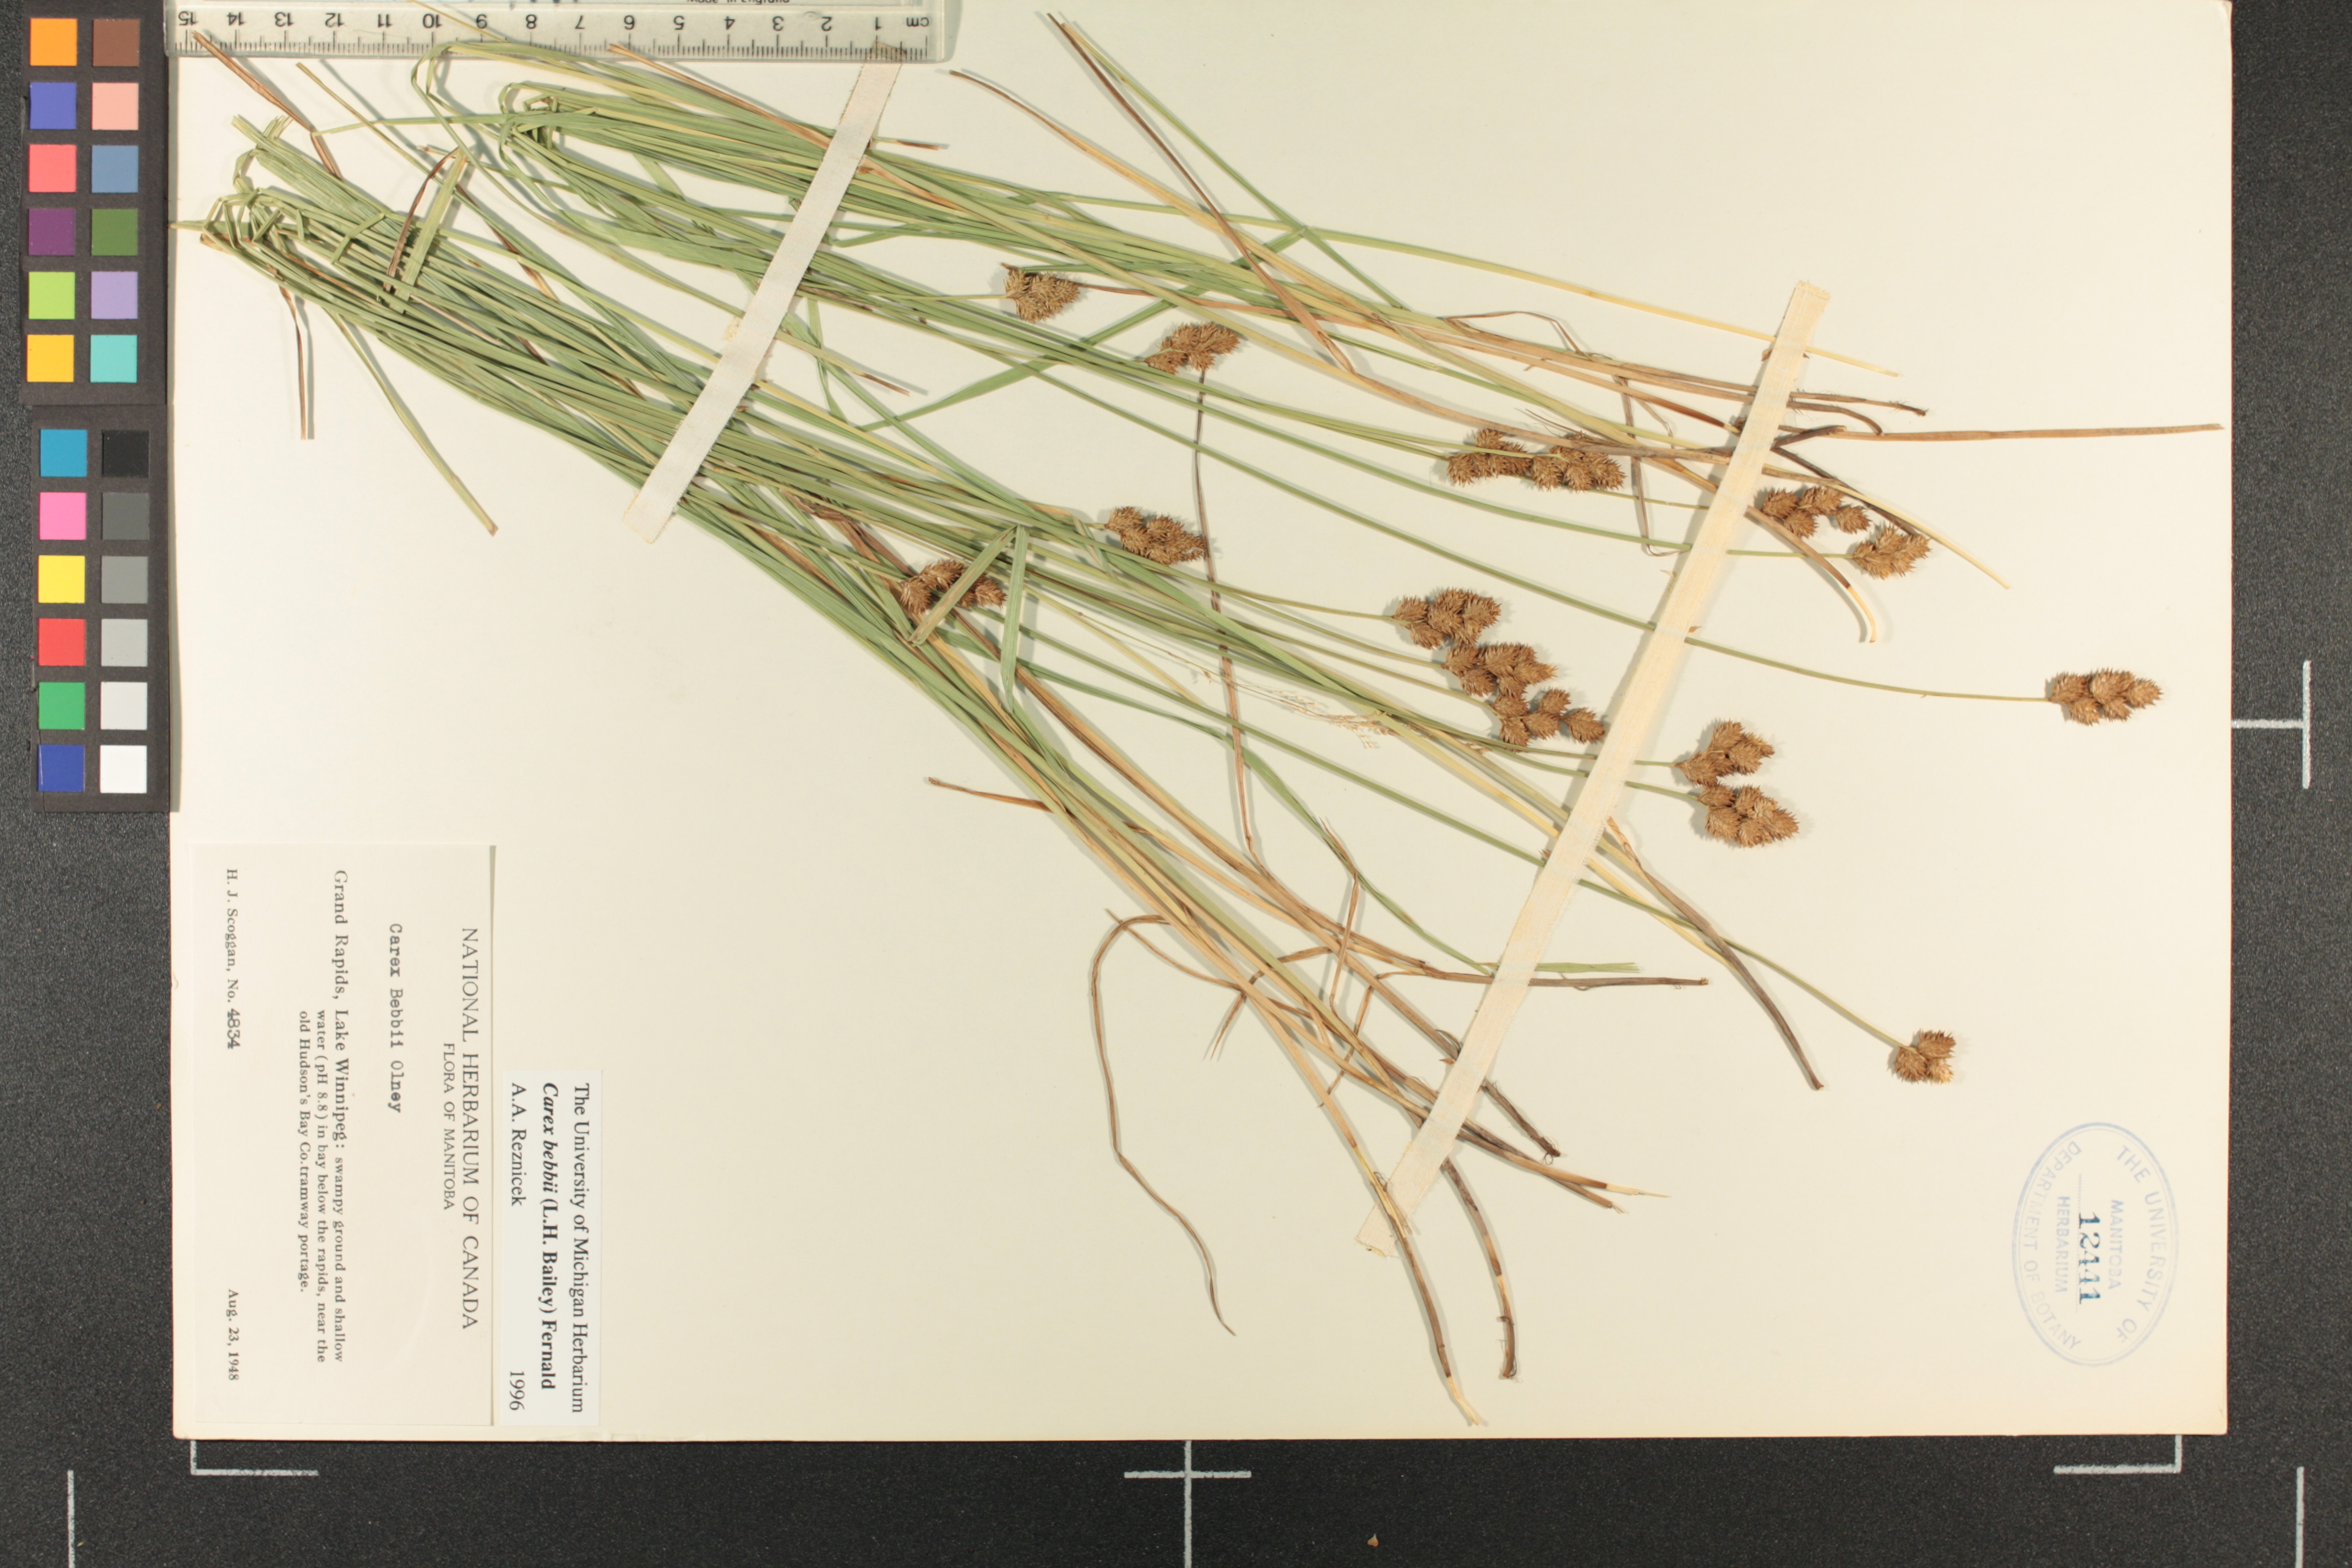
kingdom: Plantae
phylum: Tracheophyta
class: Liliopsida
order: Poales
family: Cyperaceae
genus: Carex
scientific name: Carex bebbii
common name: Bebb's sedge
